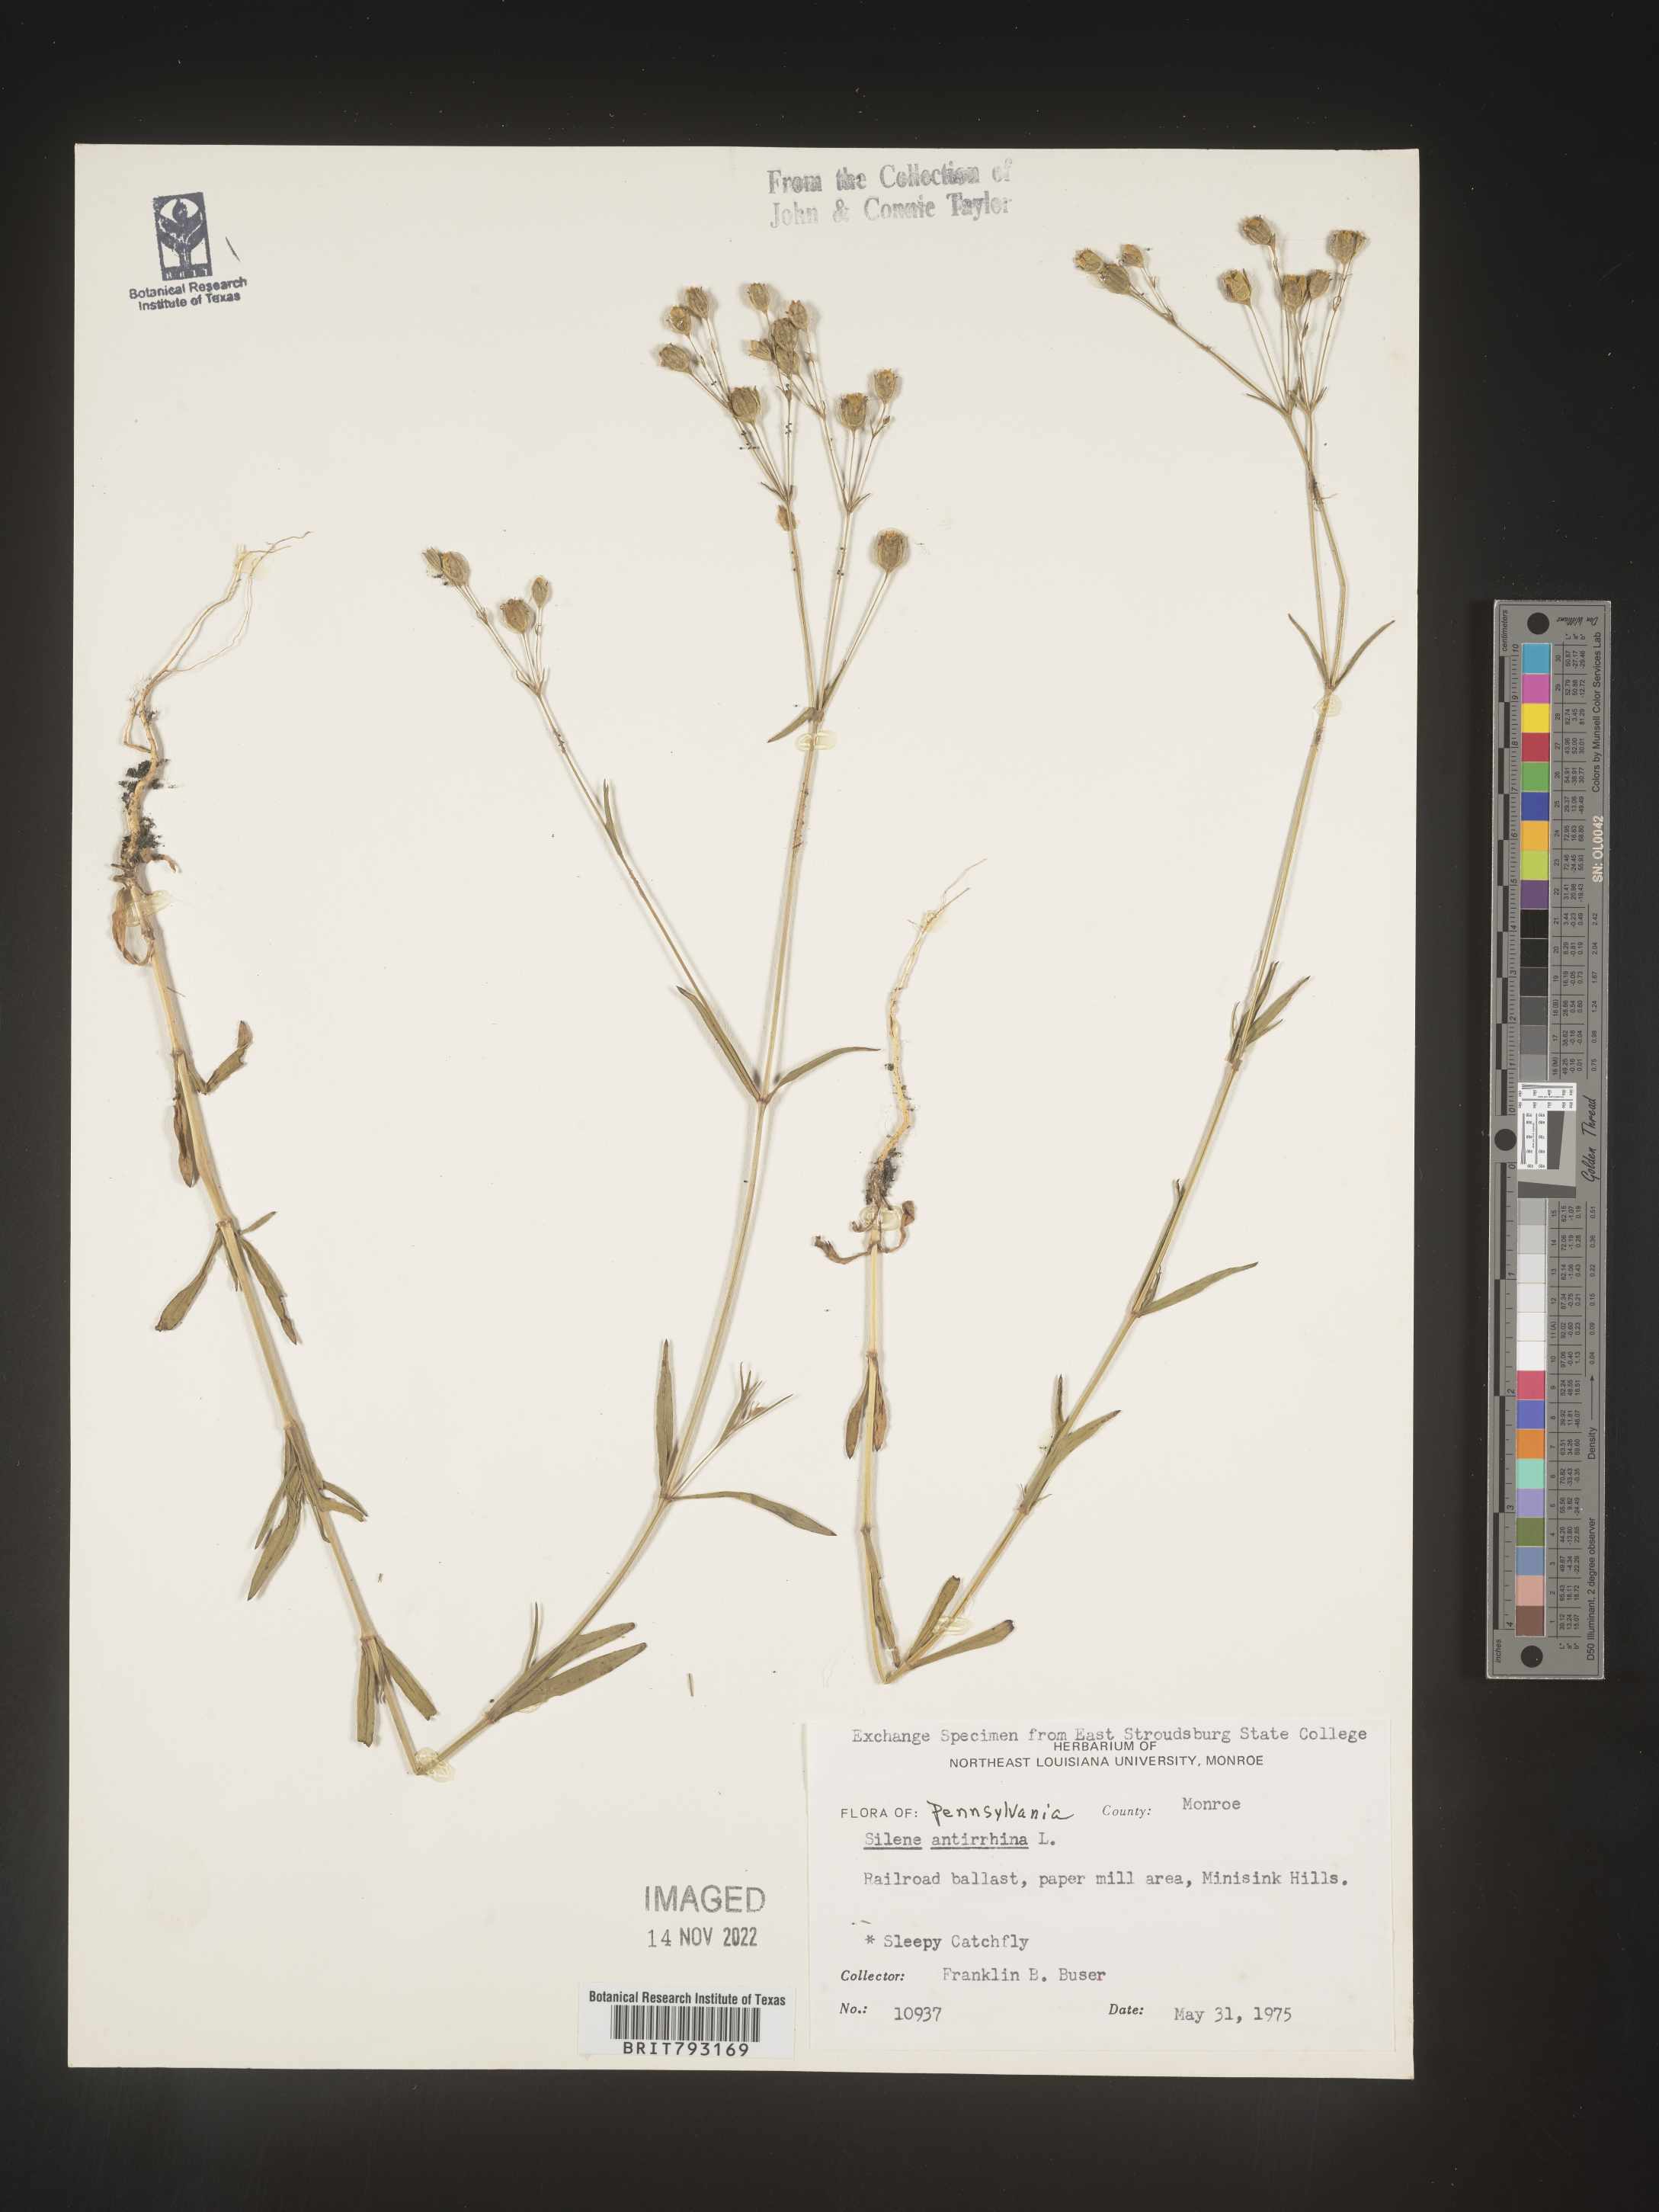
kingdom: Plantae
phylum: Tracheophyta
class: Magnoliopsida
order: Caryophyllales
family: Caryophyllaceae
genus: Silene
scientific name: Silene antirrhina
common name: Sleepy catchfly
